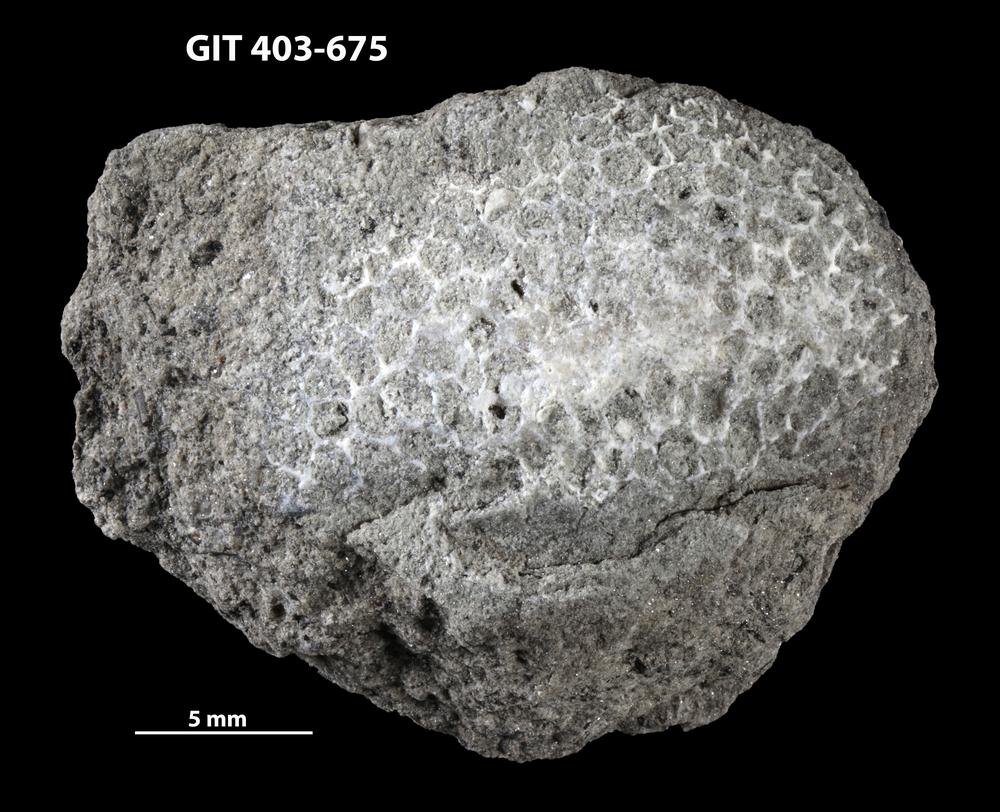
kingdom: Animalia
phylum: Cnidaria
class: Anthozoa
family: Favositidae
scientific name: Favositidae
